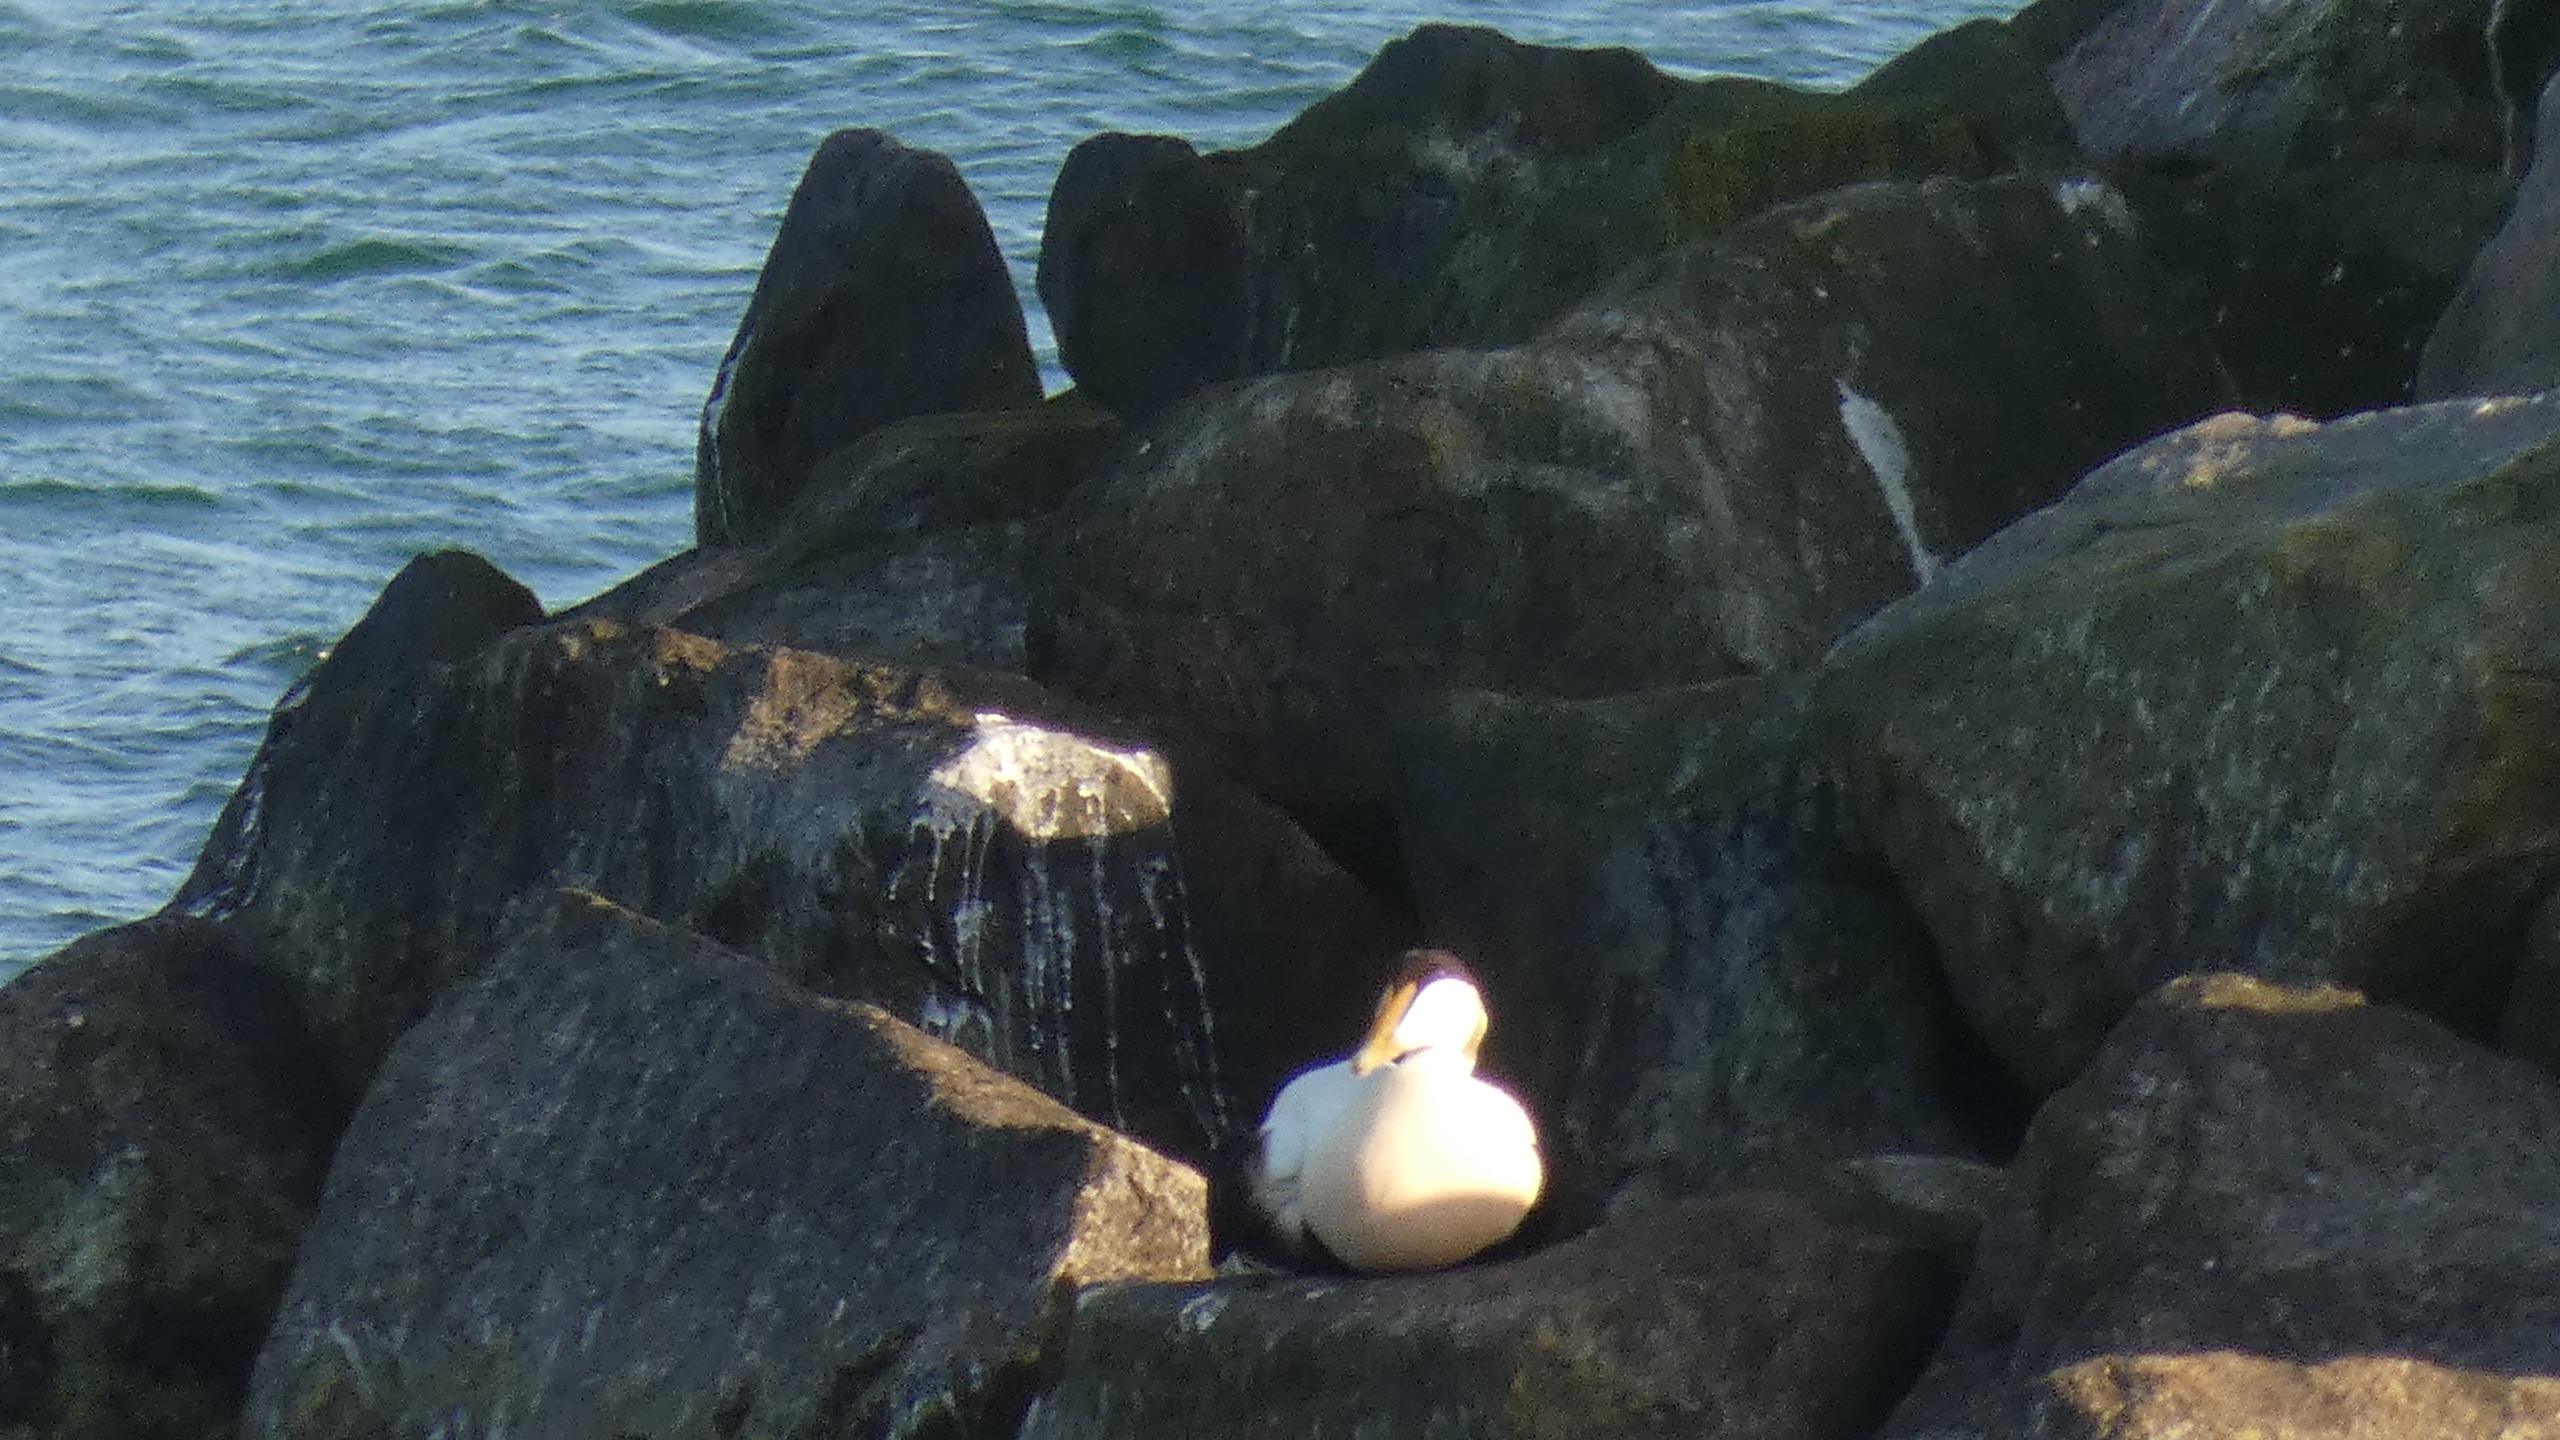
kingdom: Animalia
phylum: Chordata
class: Aves
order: Anseriformes
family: Anatidae
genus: Somateria
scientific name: Somateria mollissima
